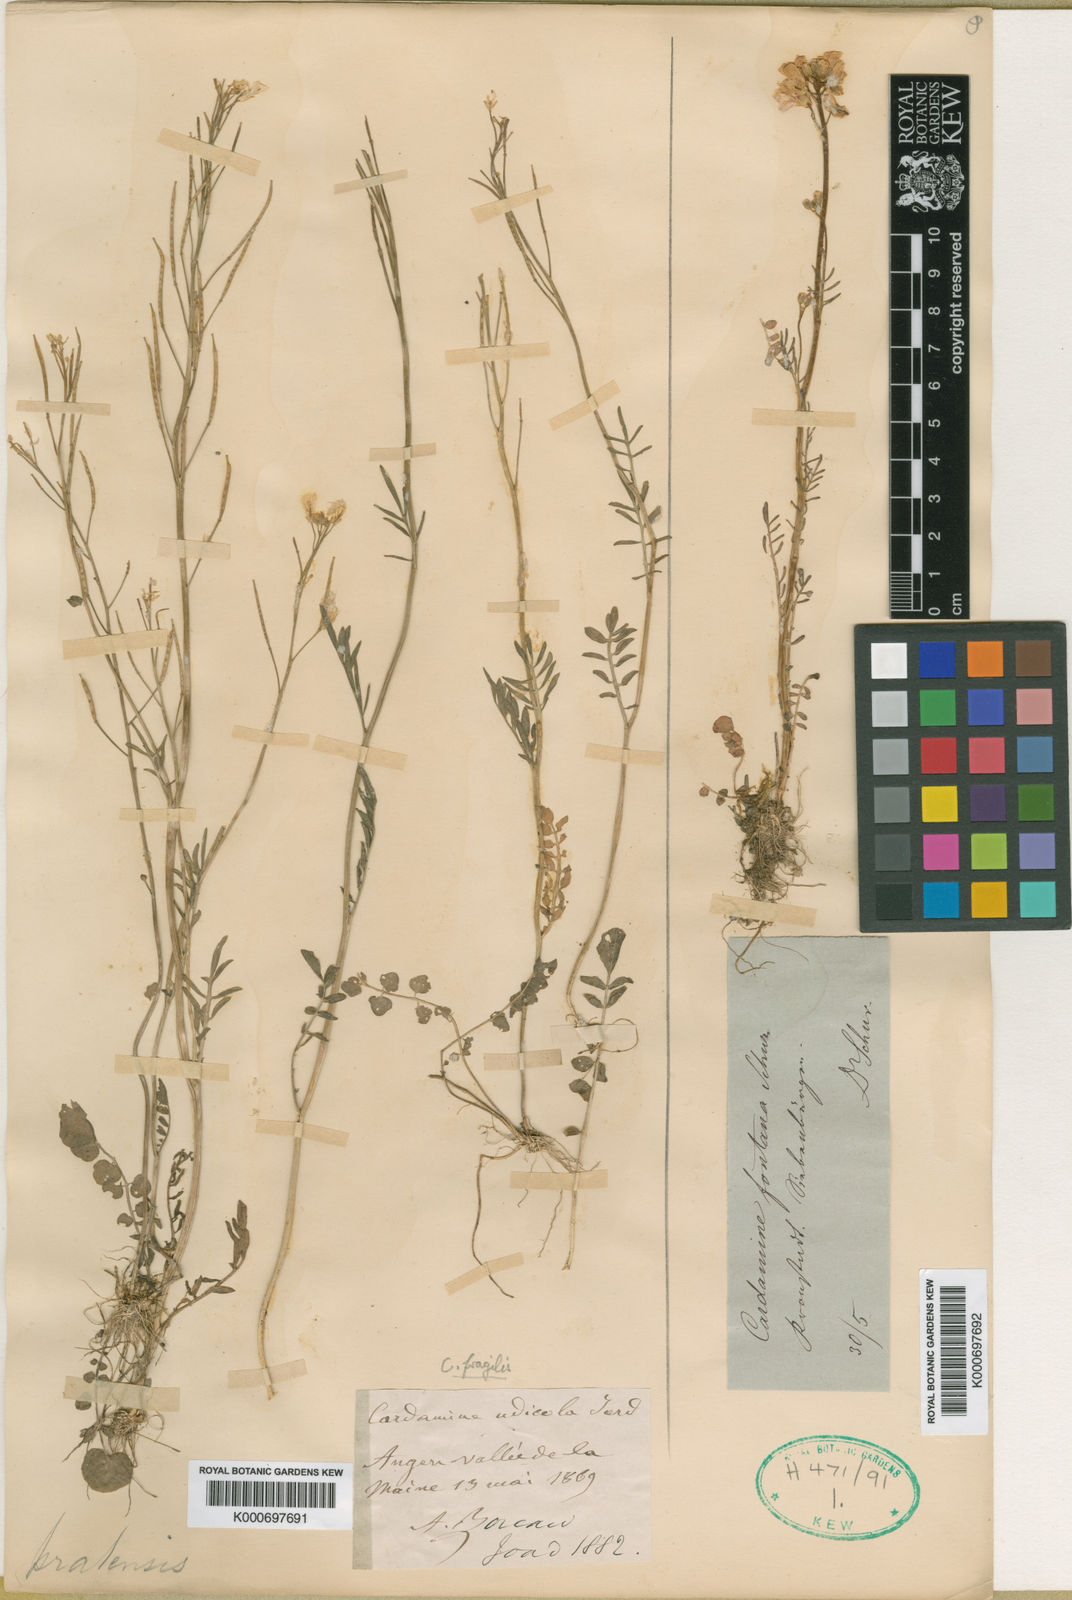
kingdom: Plantae
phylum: Tracheophyta
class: Magnoliopsida
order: Brassicales
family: Brassicaceae
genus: Cardamine
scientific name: Cardamine
